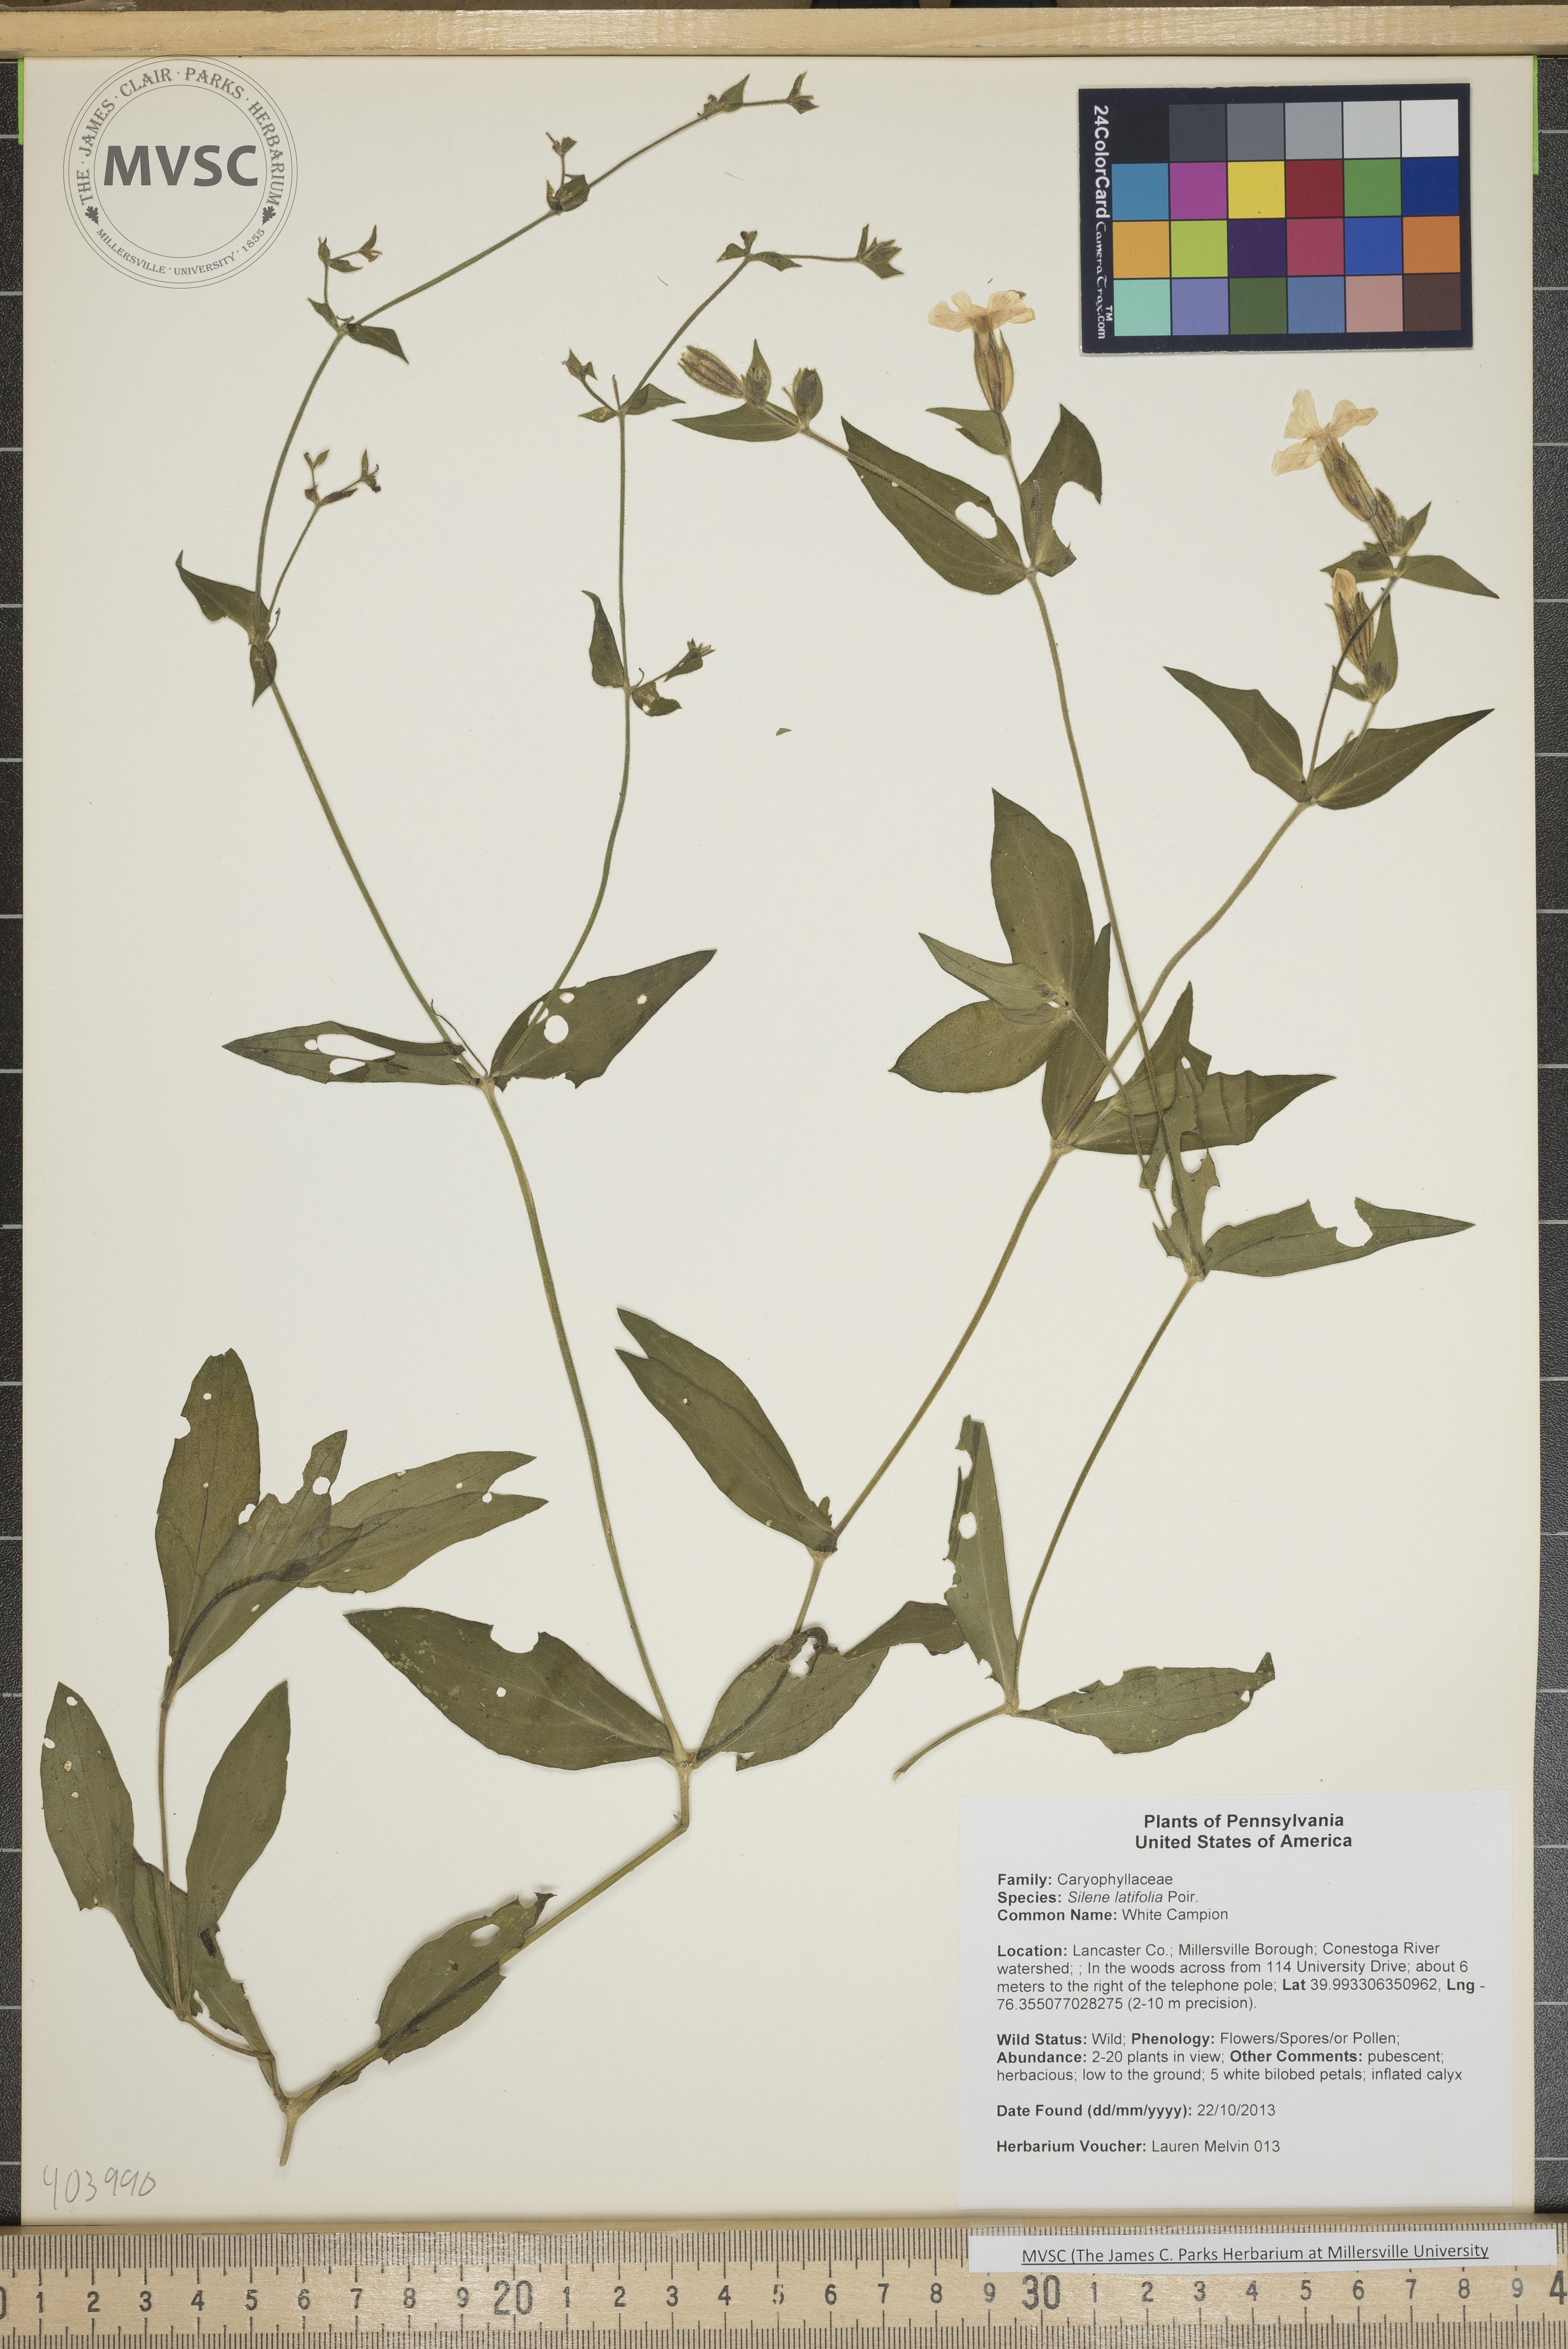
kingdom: Plantae
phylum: Tracheophyta
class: Magnoliopsida
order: Caryophyllales
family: Caryophyllaceae
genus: Silene
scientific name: Silene latifolia
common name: White Campion
